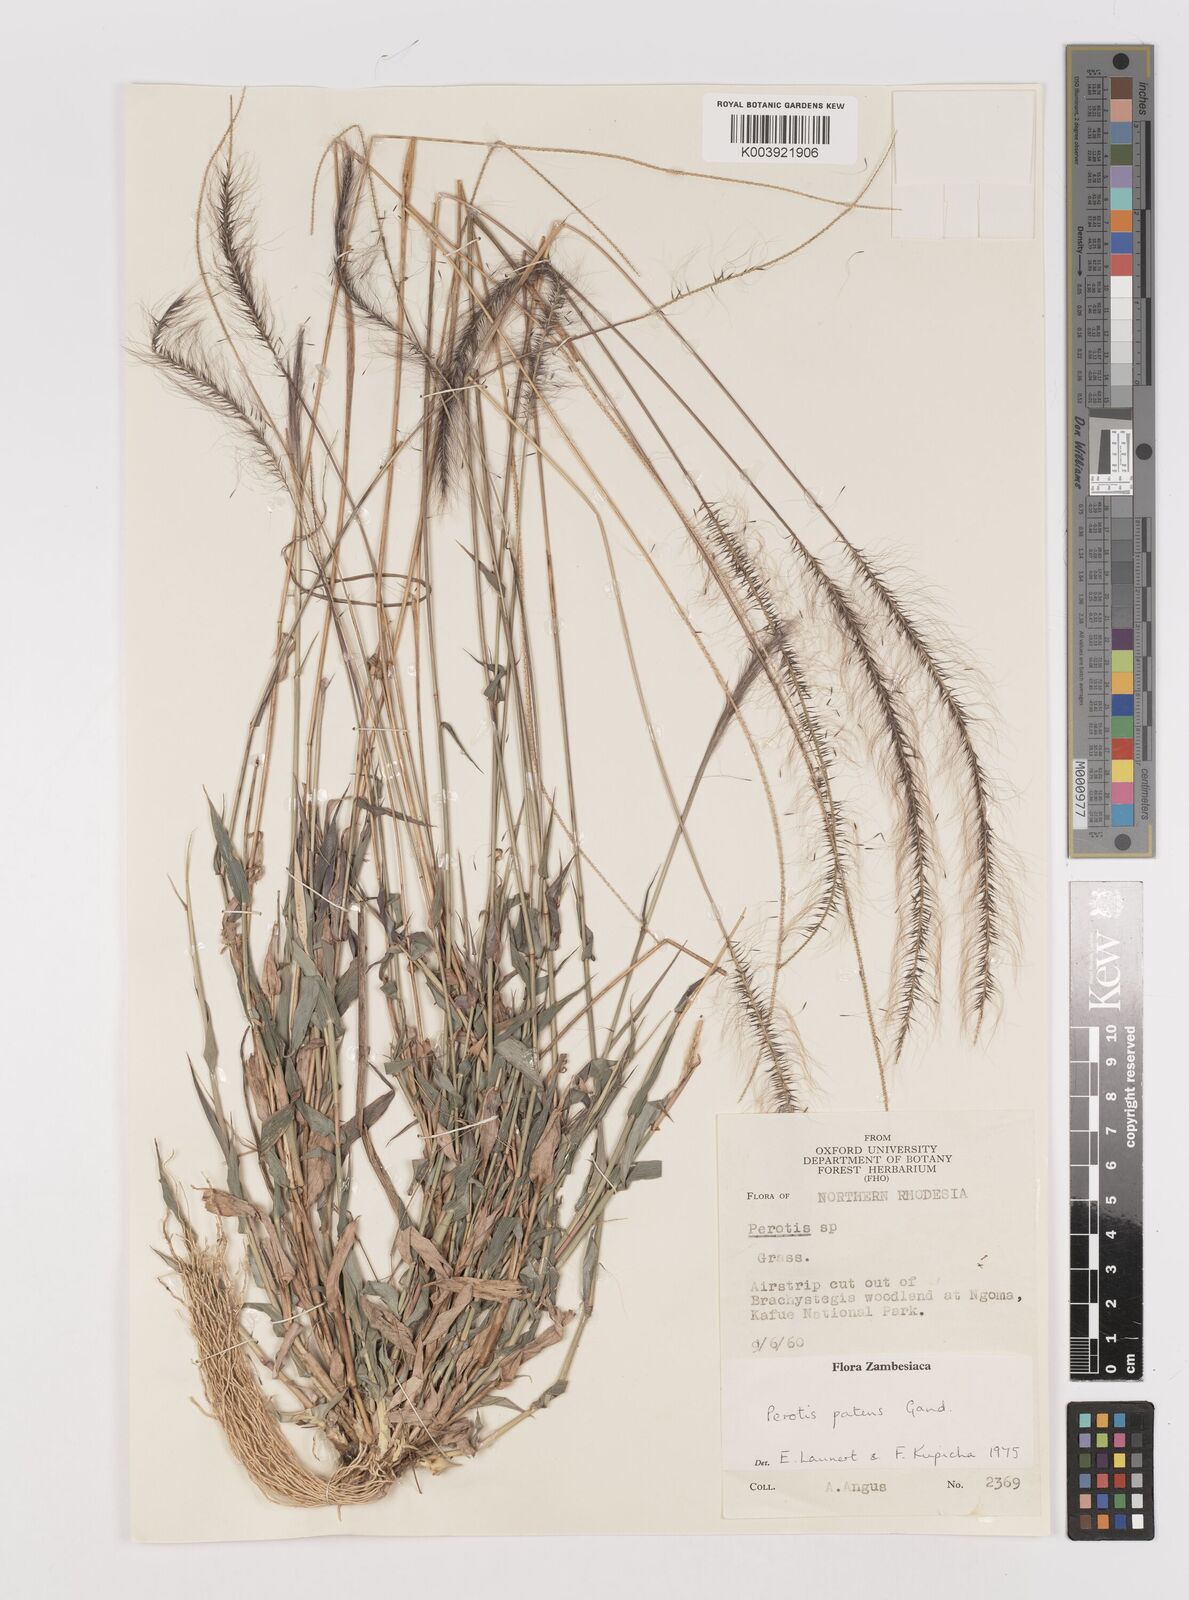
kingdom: Plantae
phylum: Tracheophyta
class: Liliopsida
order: Poales
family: Poaceae
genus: Perotis
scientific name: Perotis patens
